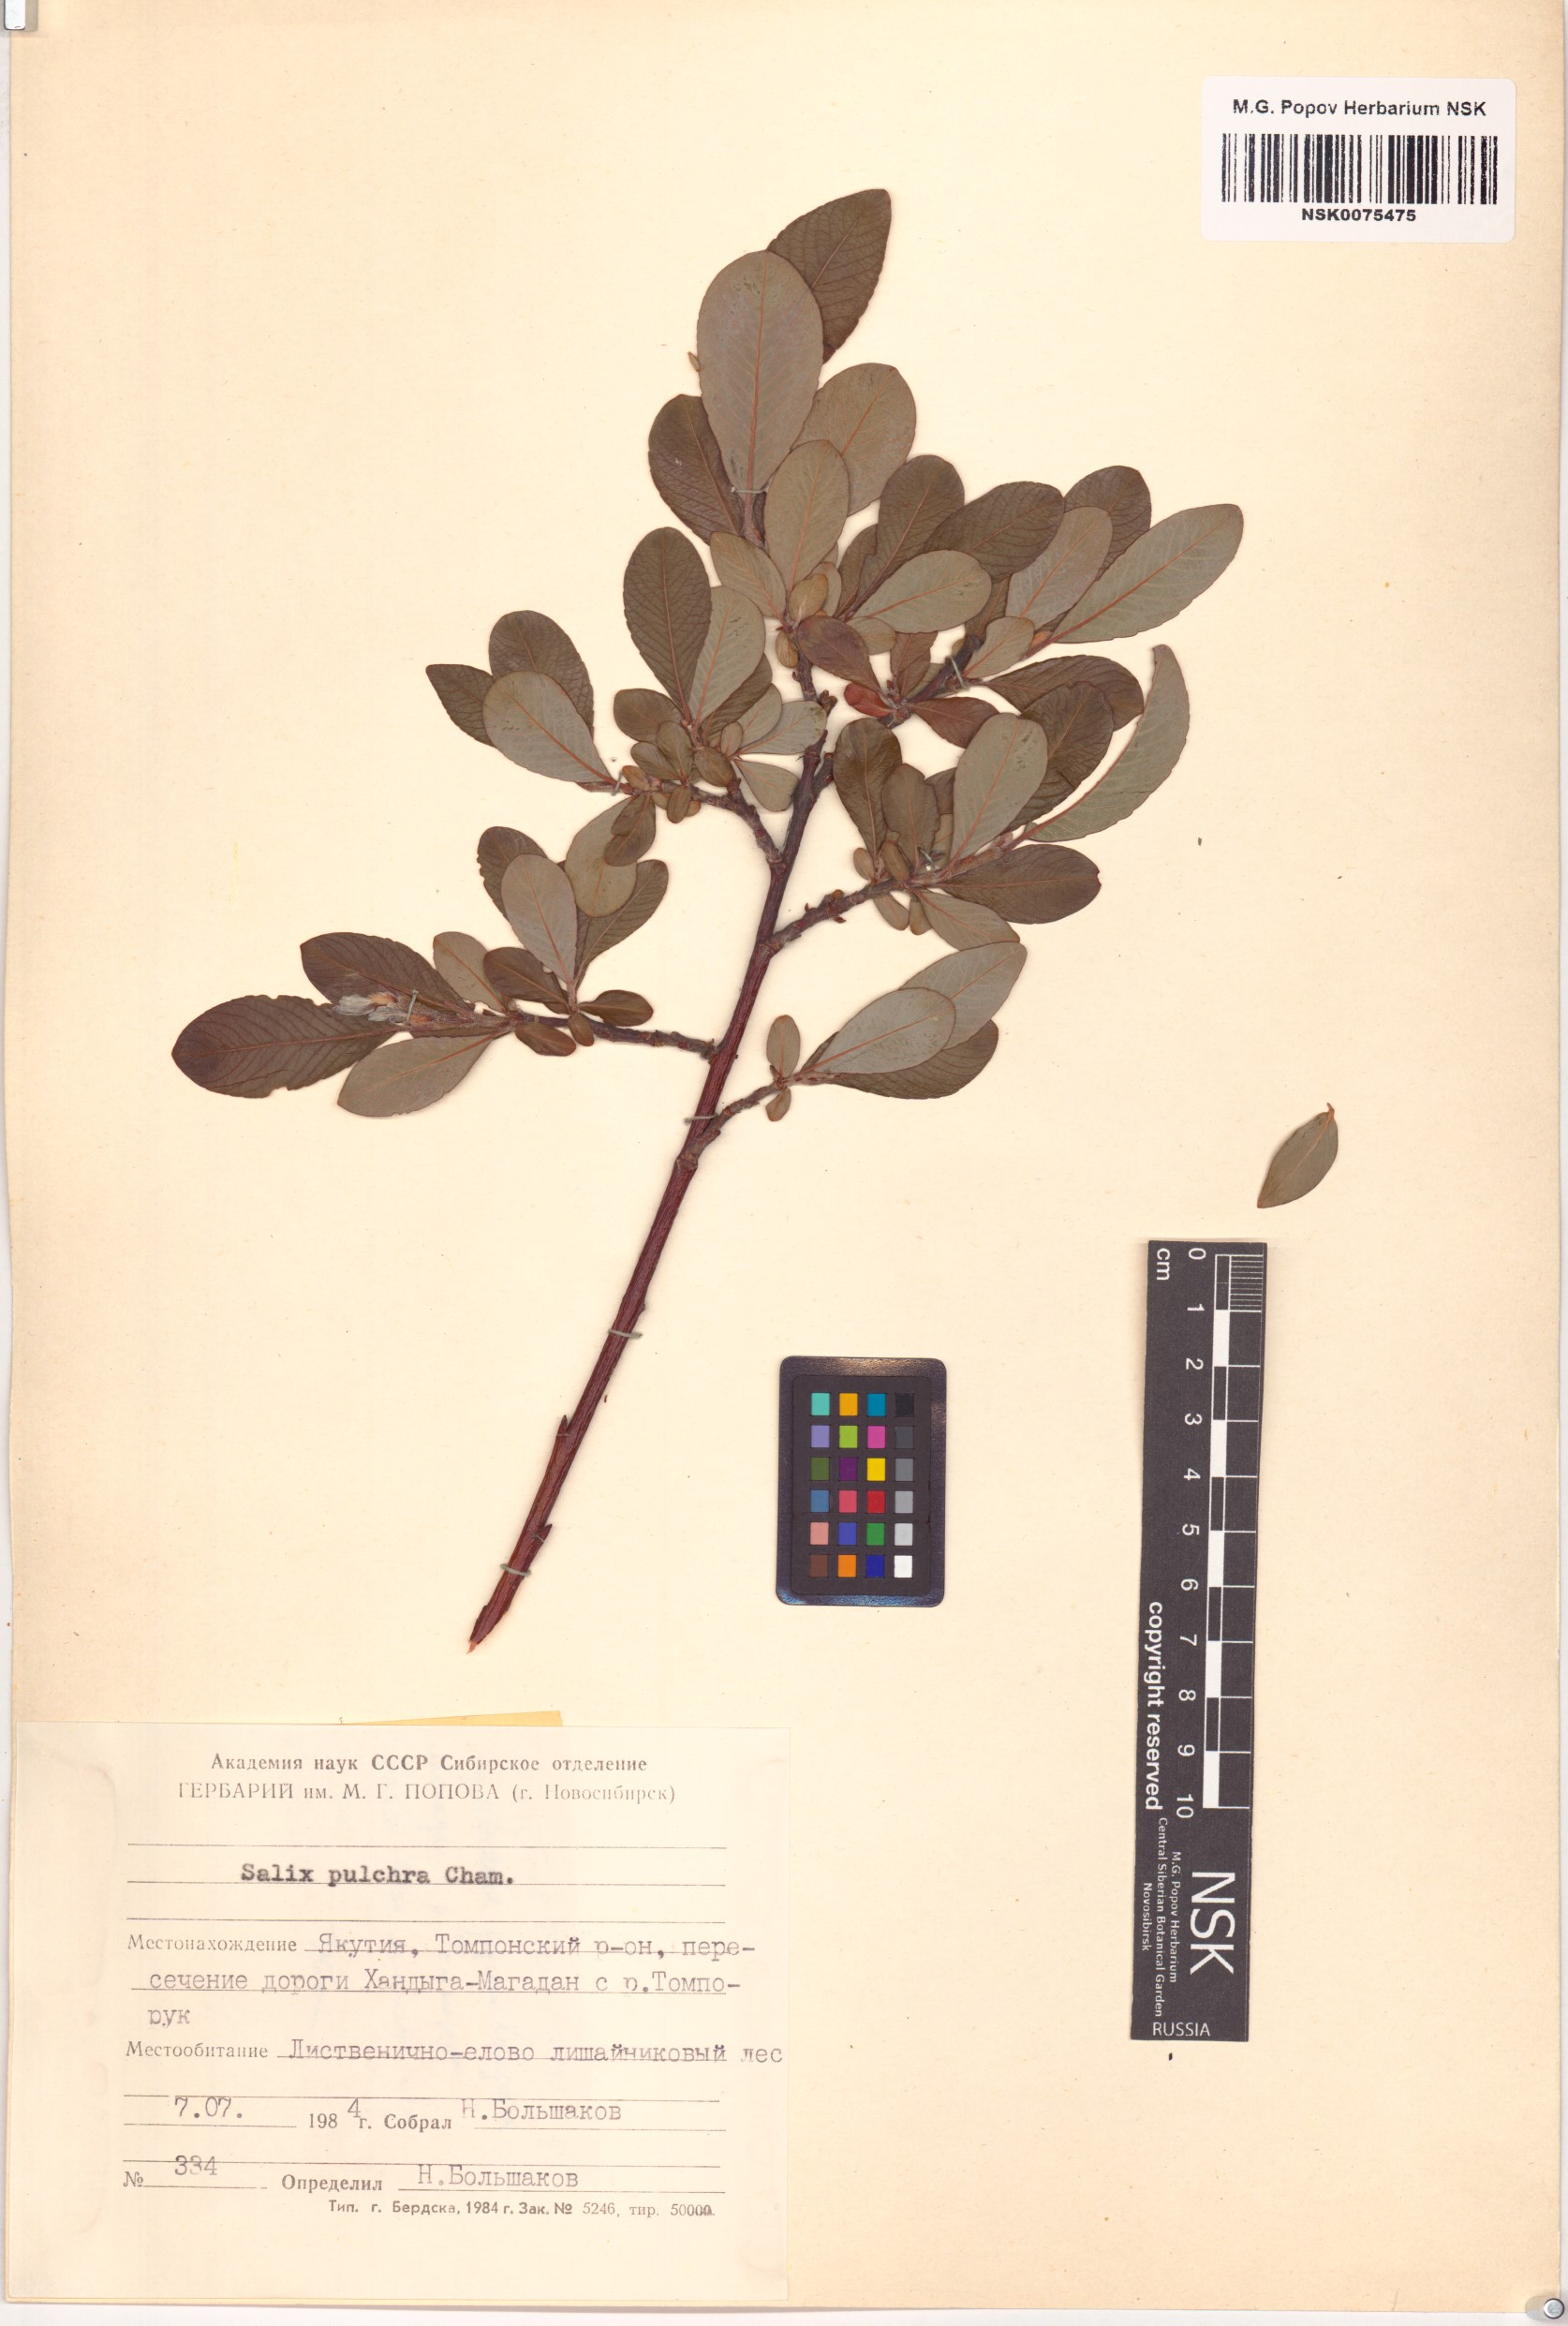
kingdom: Plantae
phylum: Tracheophyta
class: Magnoliopsida
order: Malpighiales
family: Salicaceae
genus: Salix
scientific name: Salix pulchra
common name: Diamond-leaved willow
